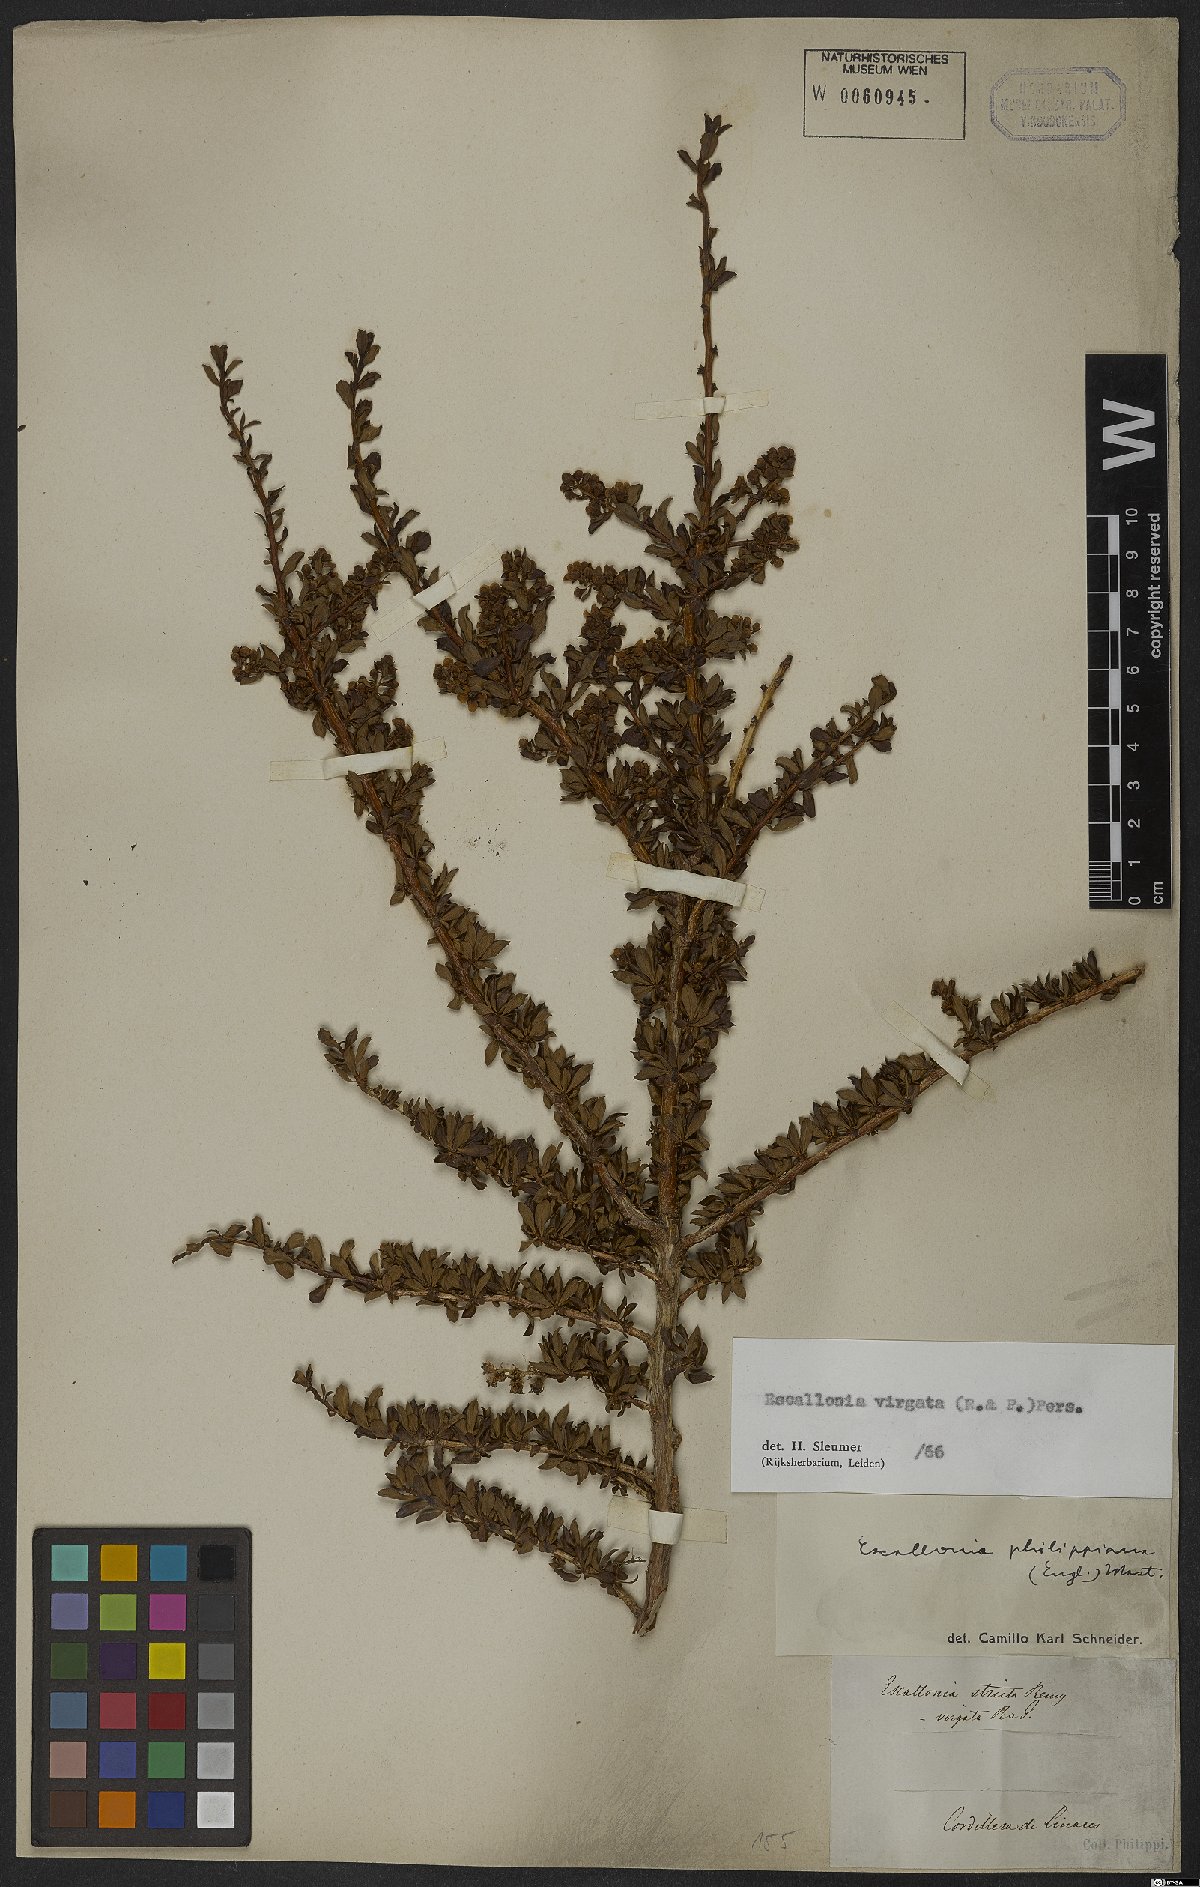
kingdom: Plantae
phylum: Tracheophyta
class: Magnoliopsida
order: Escalloniales
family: Escalloniaceae
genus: Escallonia
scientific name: Escallonia virgata
